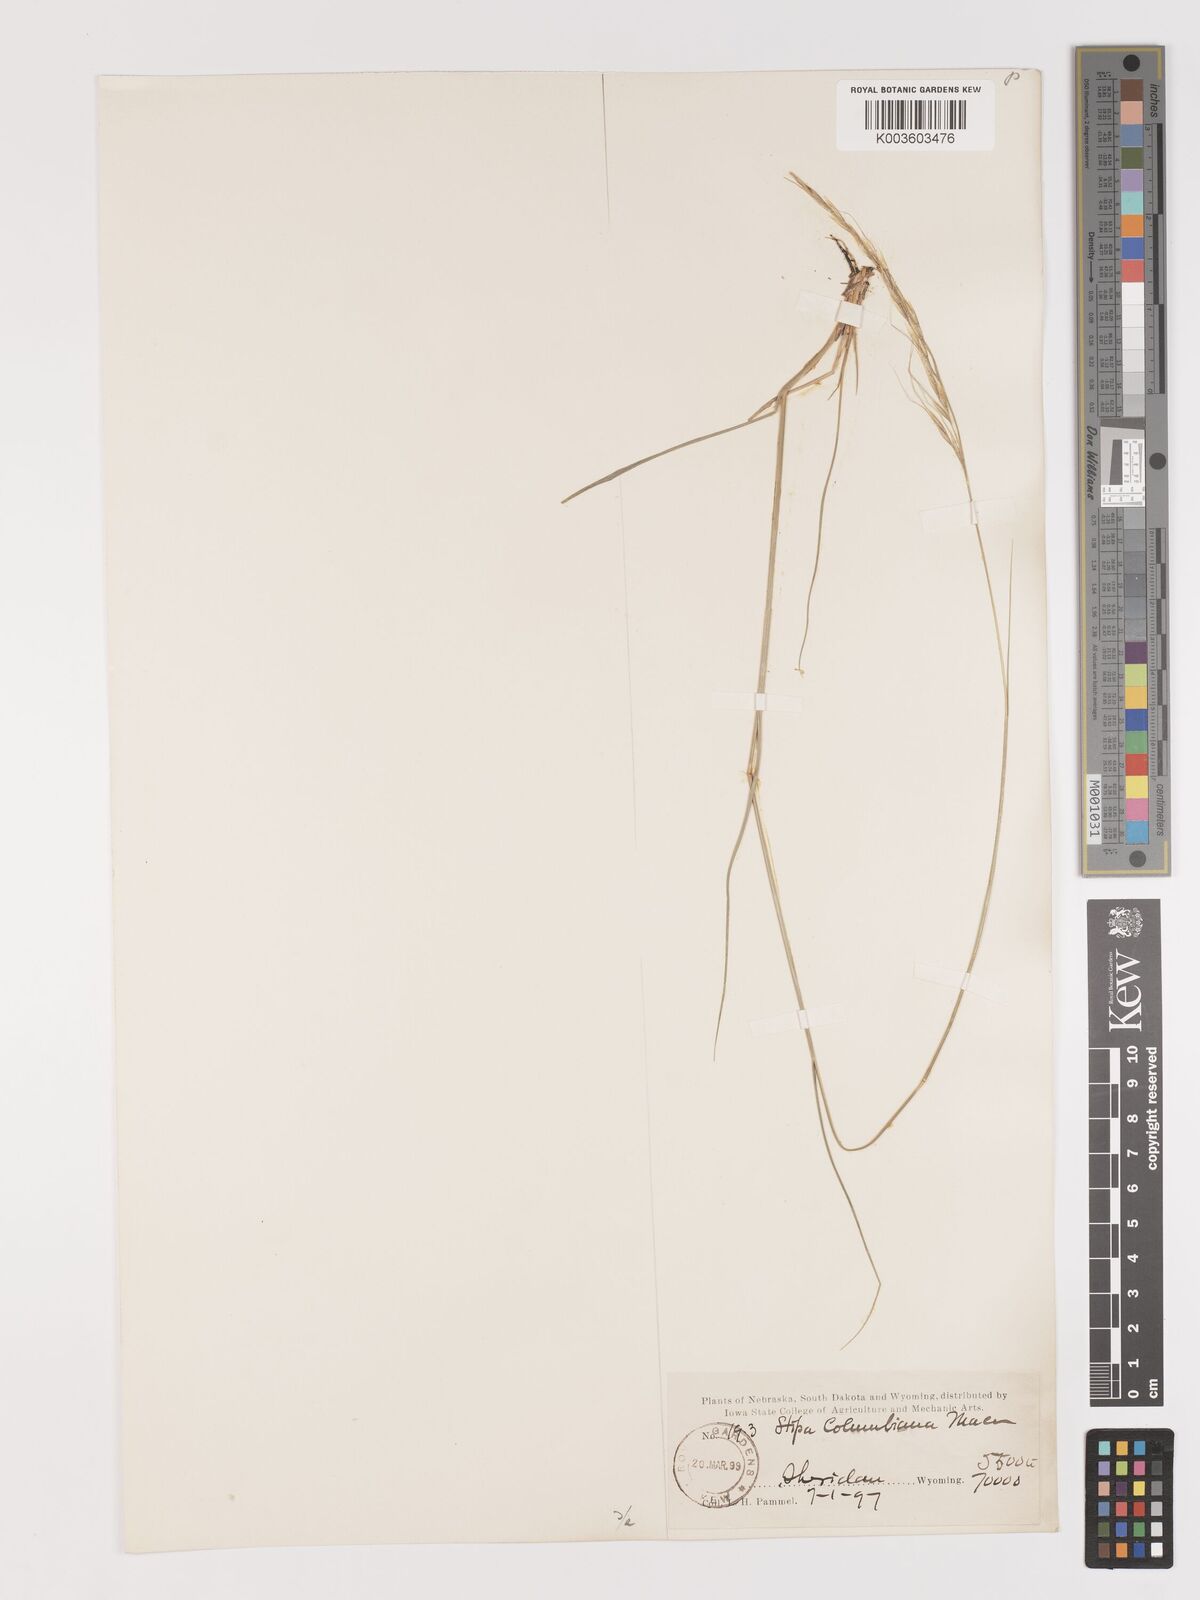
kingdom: Plantae
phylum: Tracheophyta
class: Liliopsida
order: Poales
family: Poaceae
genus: Eriocoma
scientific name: Eriocoma nelsonii
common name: Nelson's needlegrass
